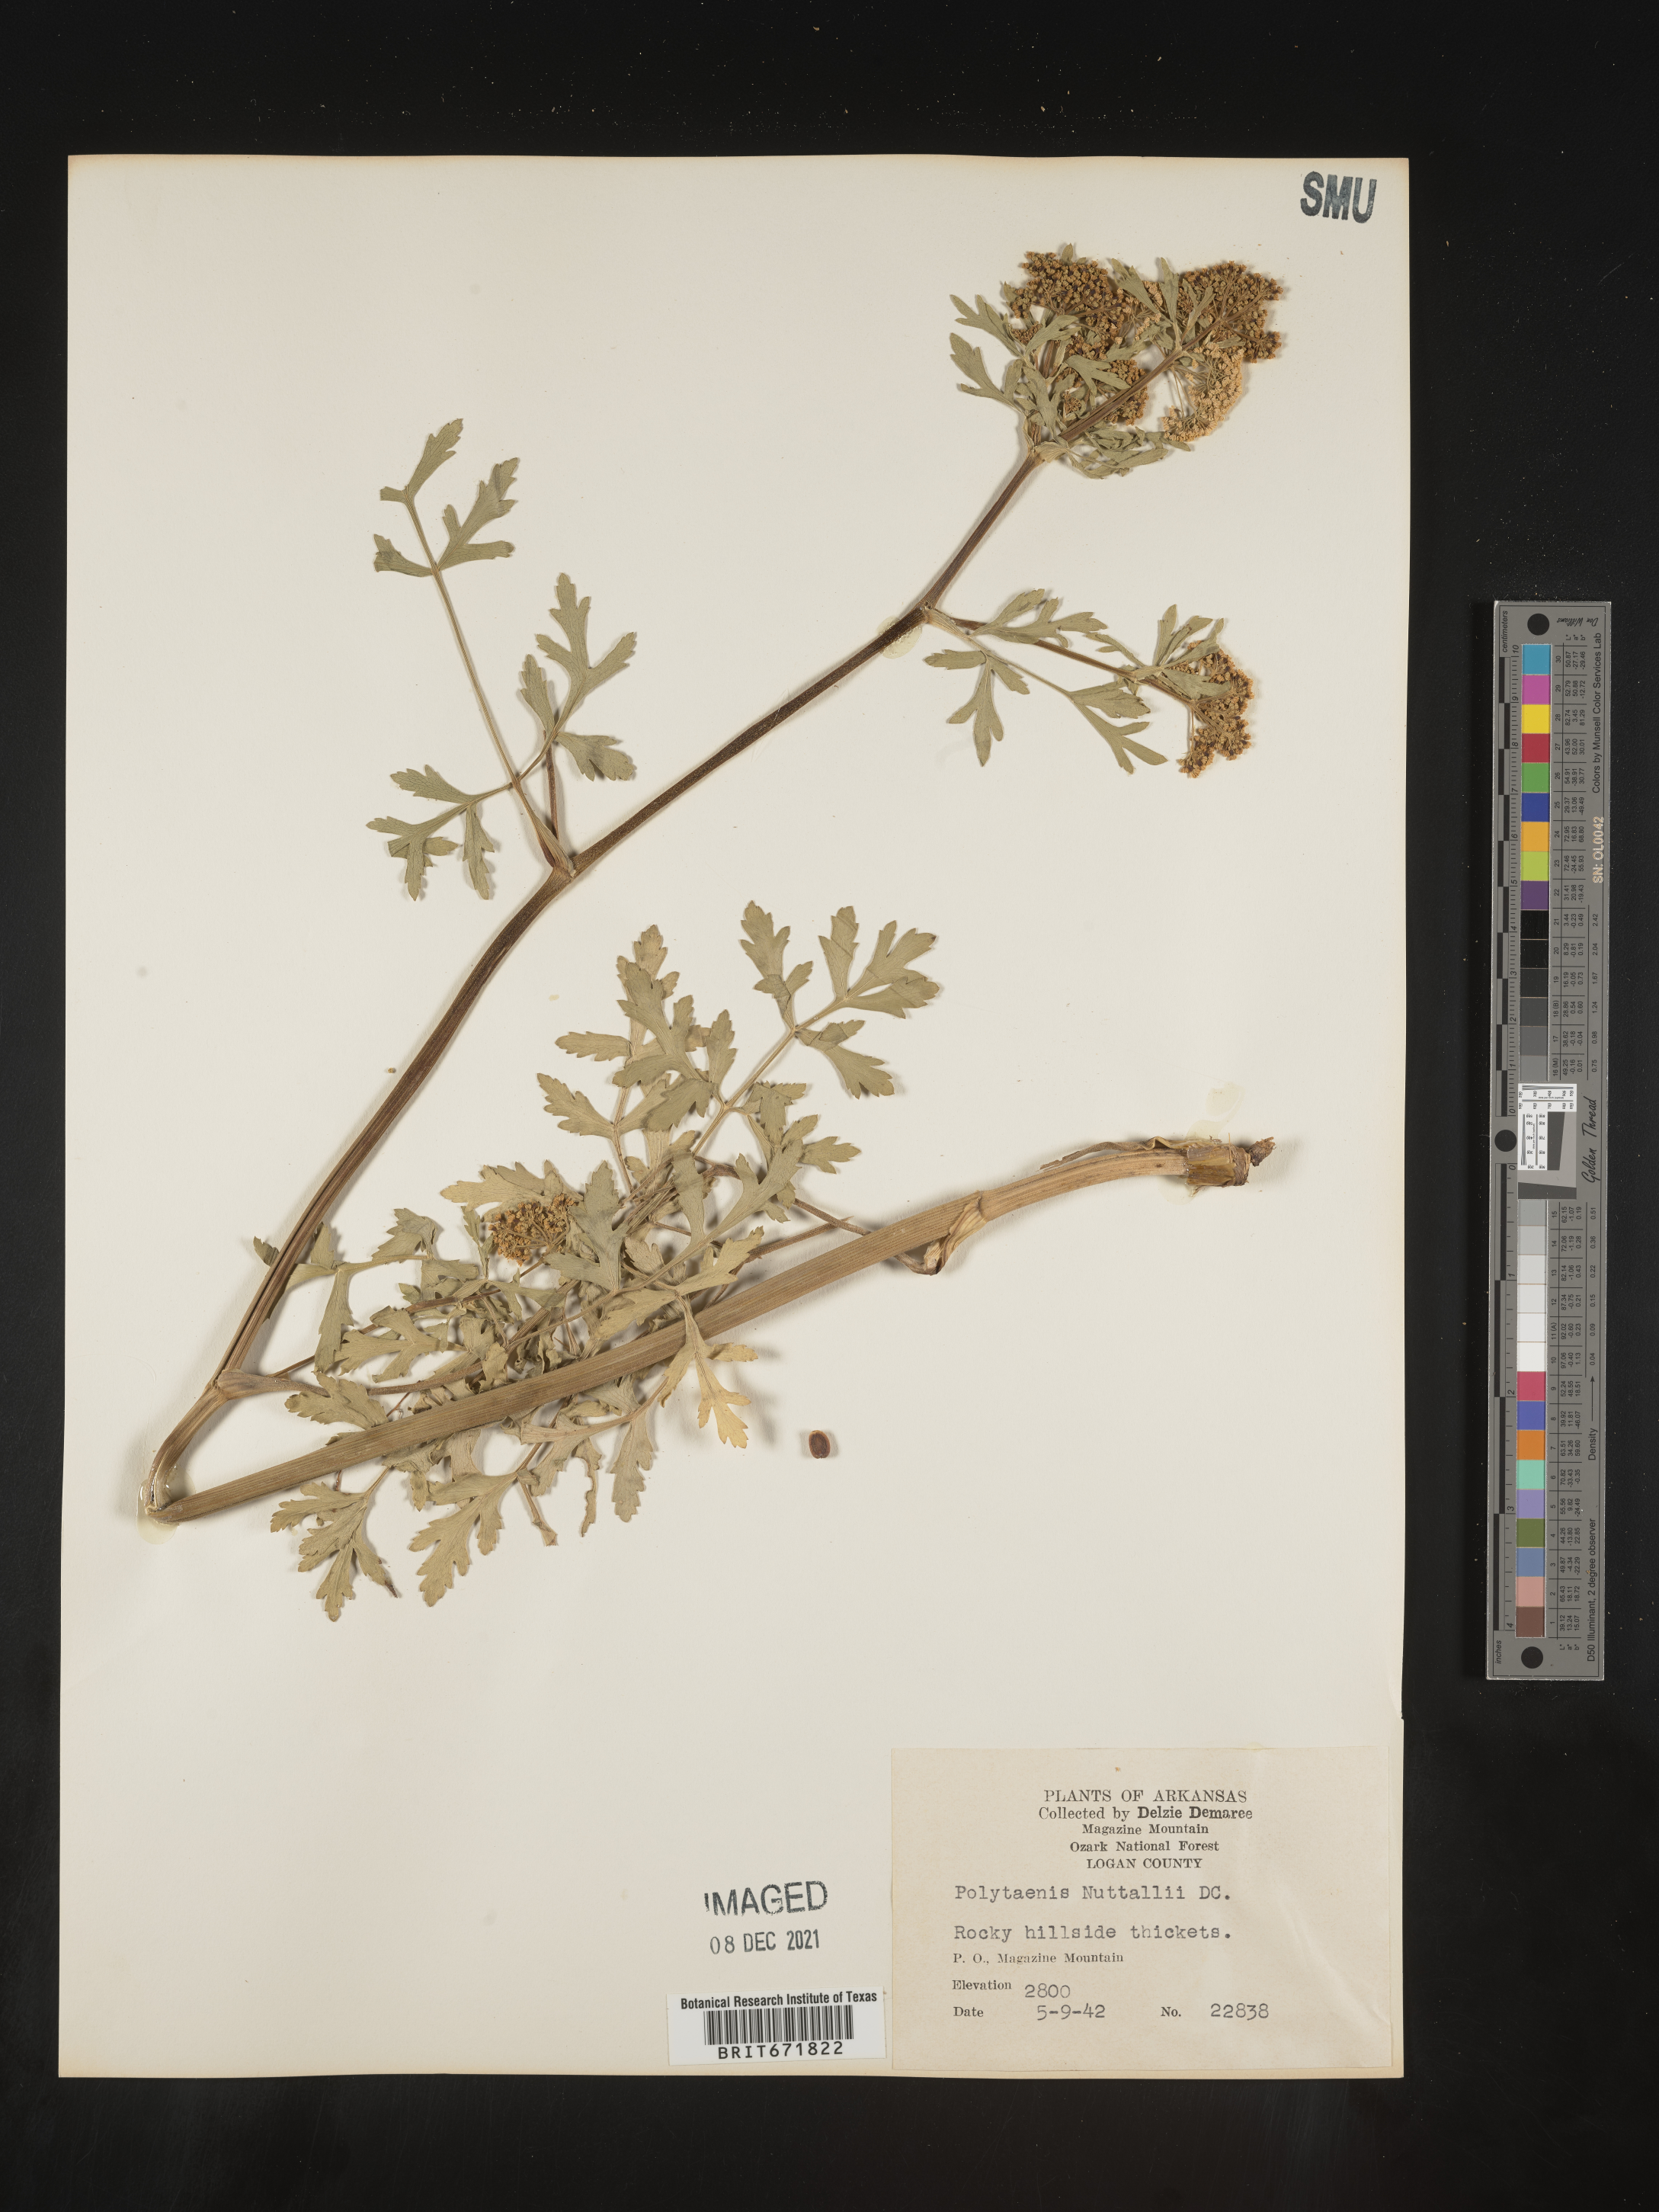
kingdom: Plantae
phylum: Tracheophyta
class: Magnoliopsida
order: Apiales
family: Apiaceae
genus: Polytaenia
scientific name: Polytaenia nuttallii
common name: Prairie-parsley
